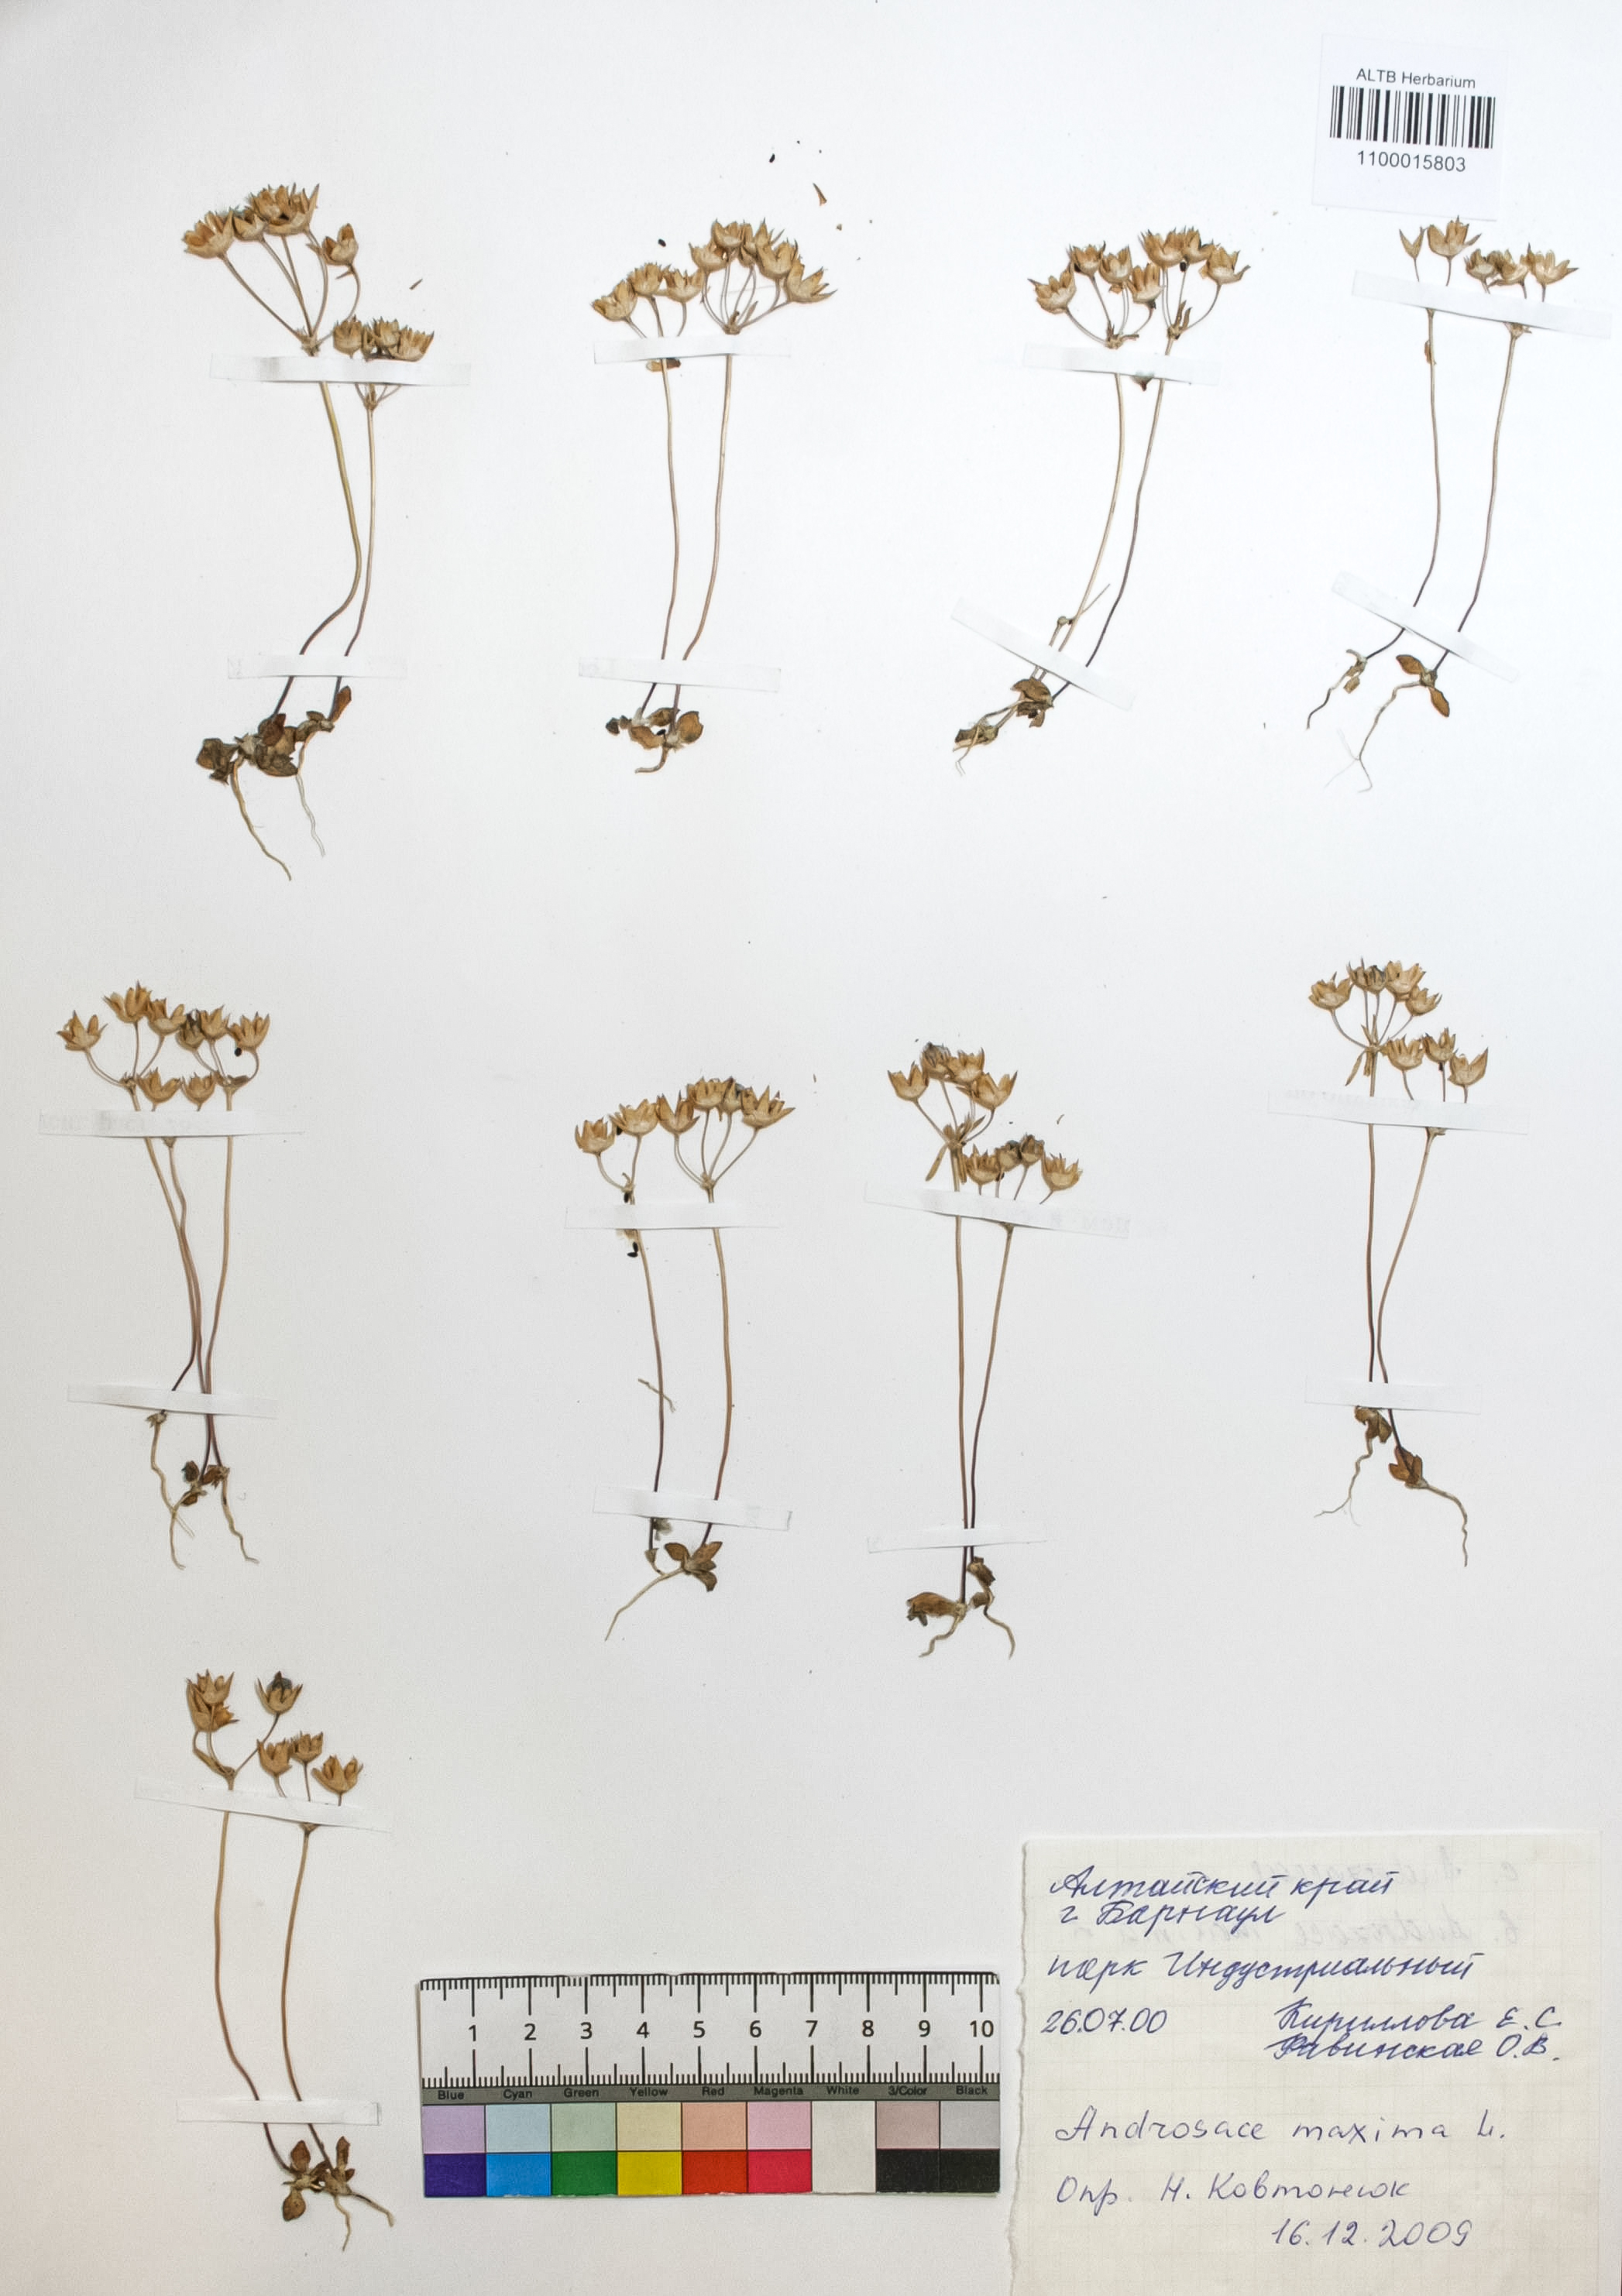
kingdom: Plantae
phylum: Tracheophyta
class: Magnoliopsida
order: Ericales
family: Primulaceae
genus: Androsace
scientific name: Androsace maxima
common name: Annual androsace
